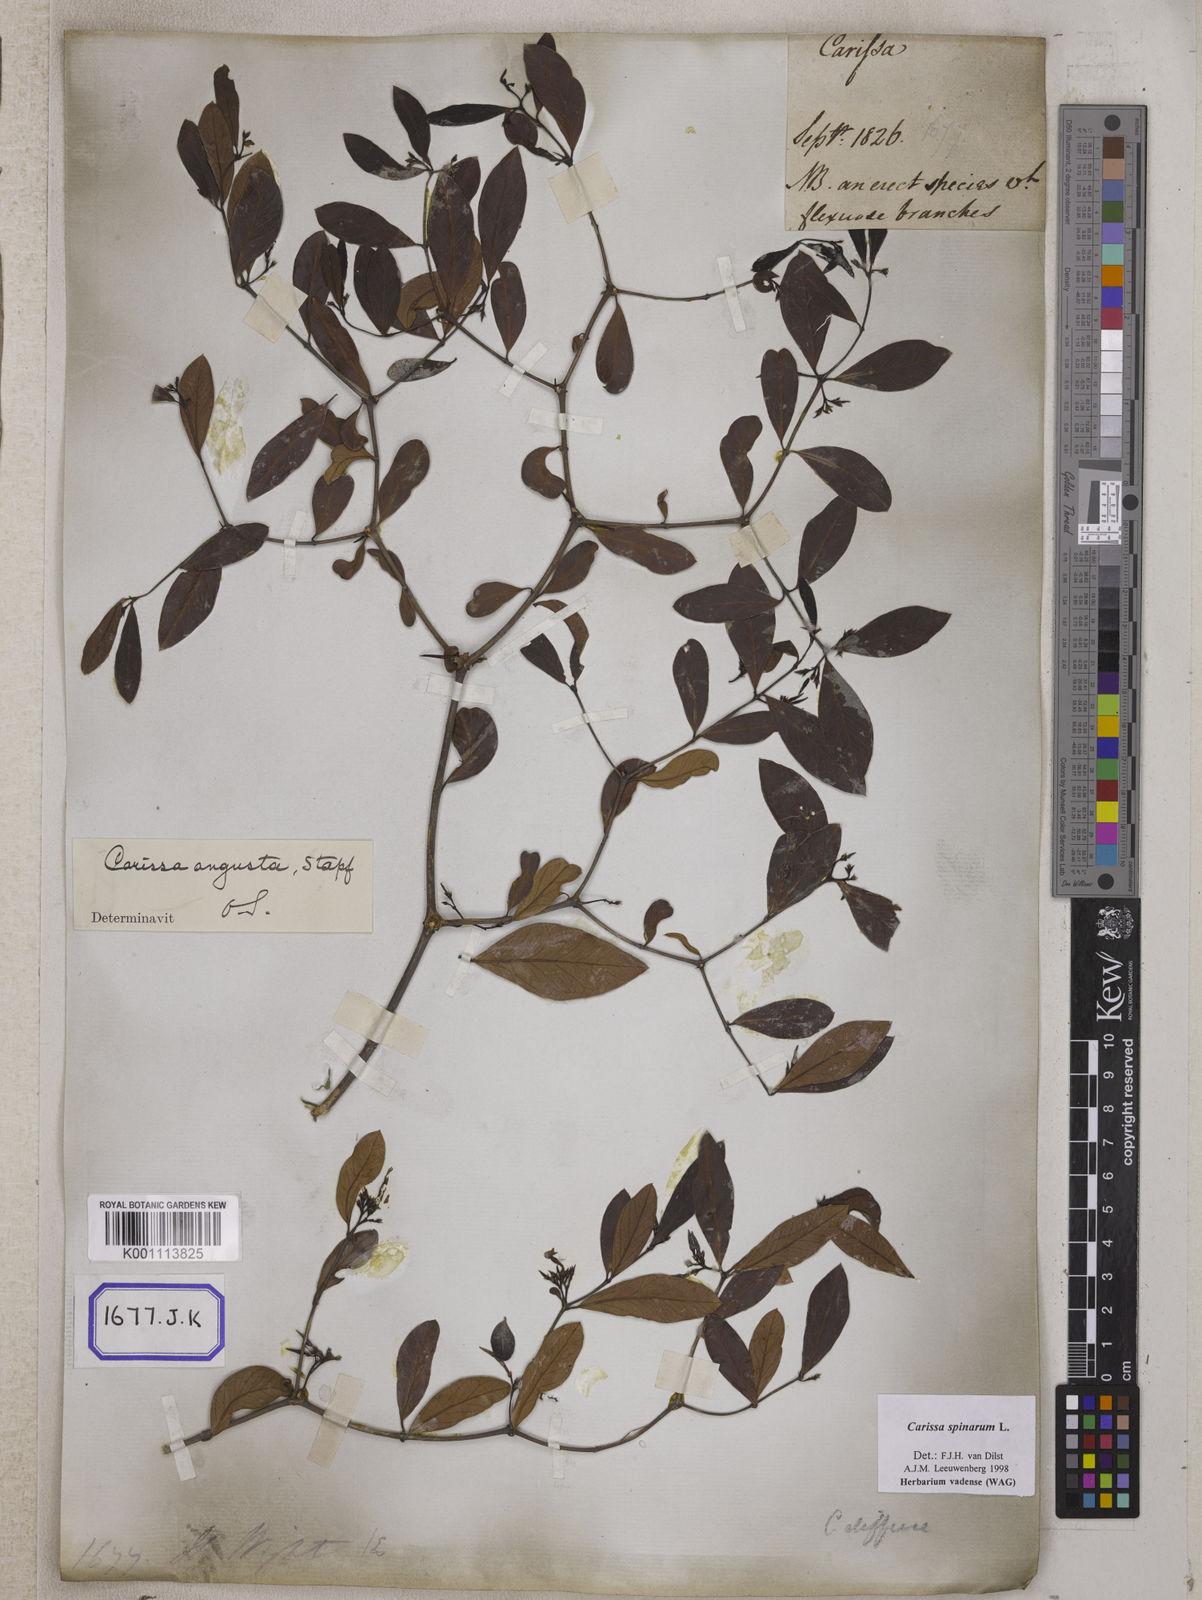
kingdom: Plantae
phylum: Tracheophyta
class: Magnoliopsida
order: Gentianales
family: Apocynaceae
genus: Carissa
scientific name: Carissa carandas
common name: Karanda
